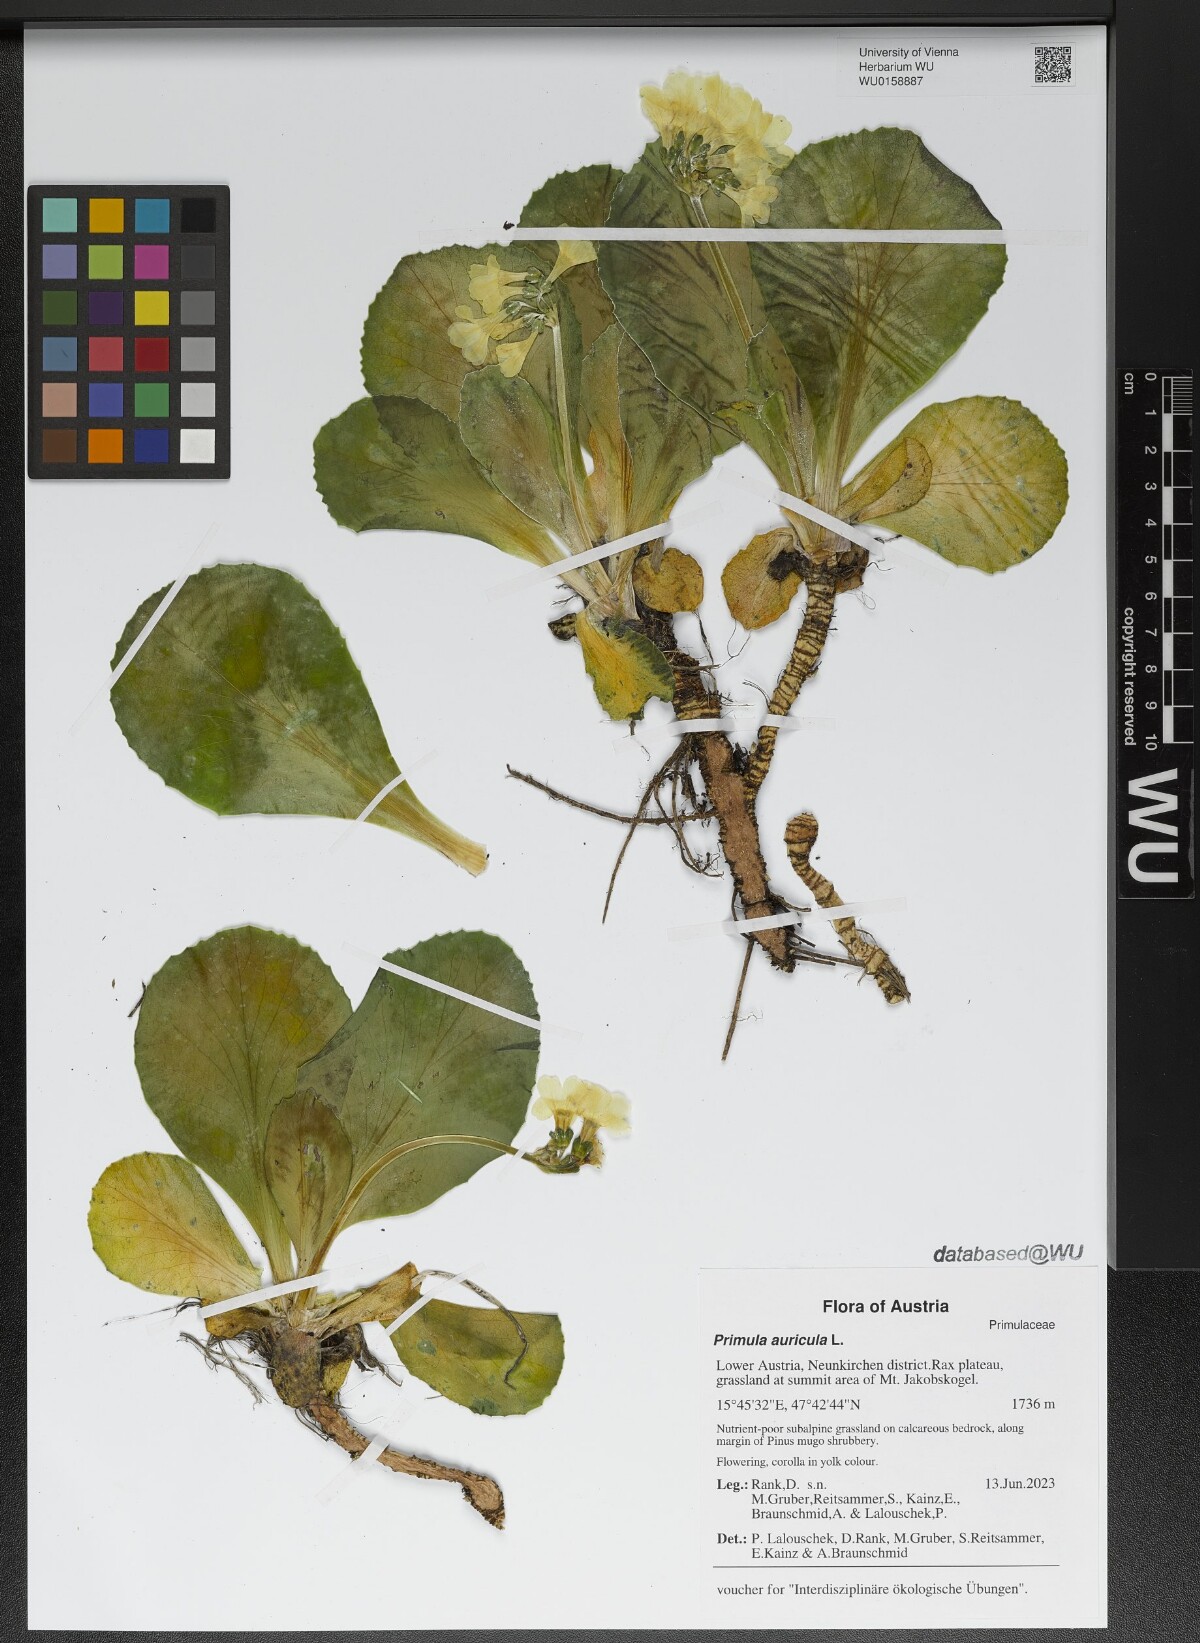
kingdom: Plantae
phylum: Tracheophyta
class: Magnoliopsida
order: Ericales
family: Primulaceae
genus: Primula
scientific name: Primula auricula
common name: Auricula
